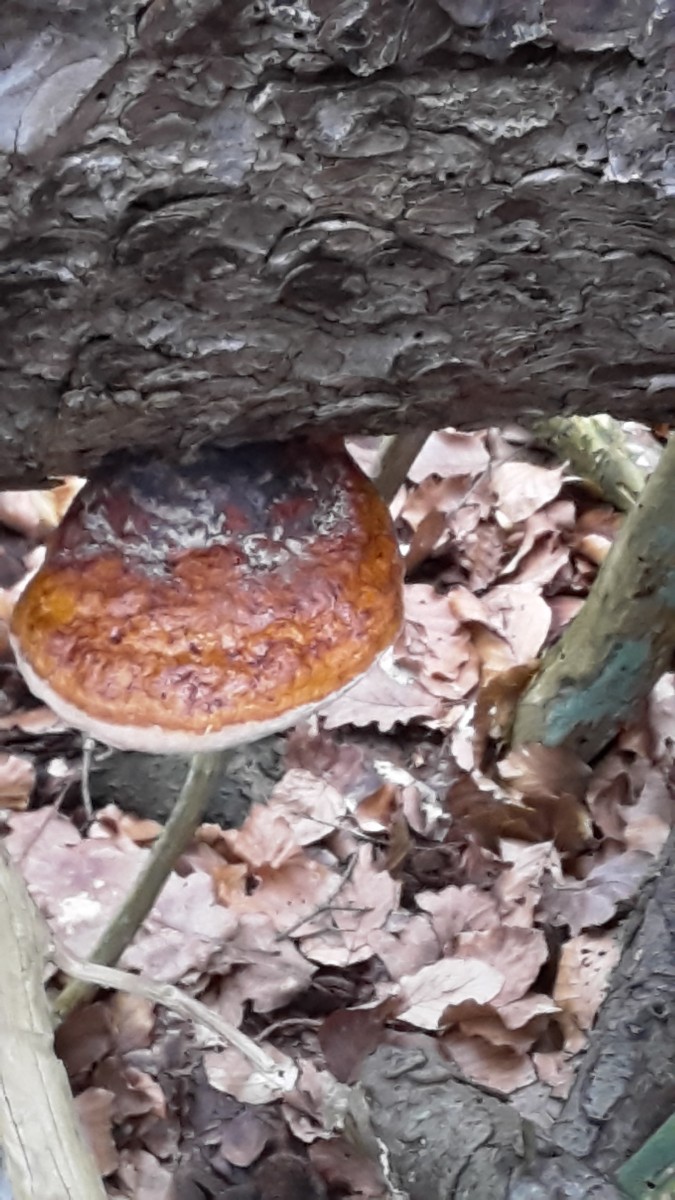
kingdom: Fungi
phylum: Basidiomycota
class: Agaricomycetes
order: Polyporales
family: Fomitopsidaceae
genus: Fomitopsis
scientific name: Fomitopsis pinicola
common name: randbæltet hovporesvamp
